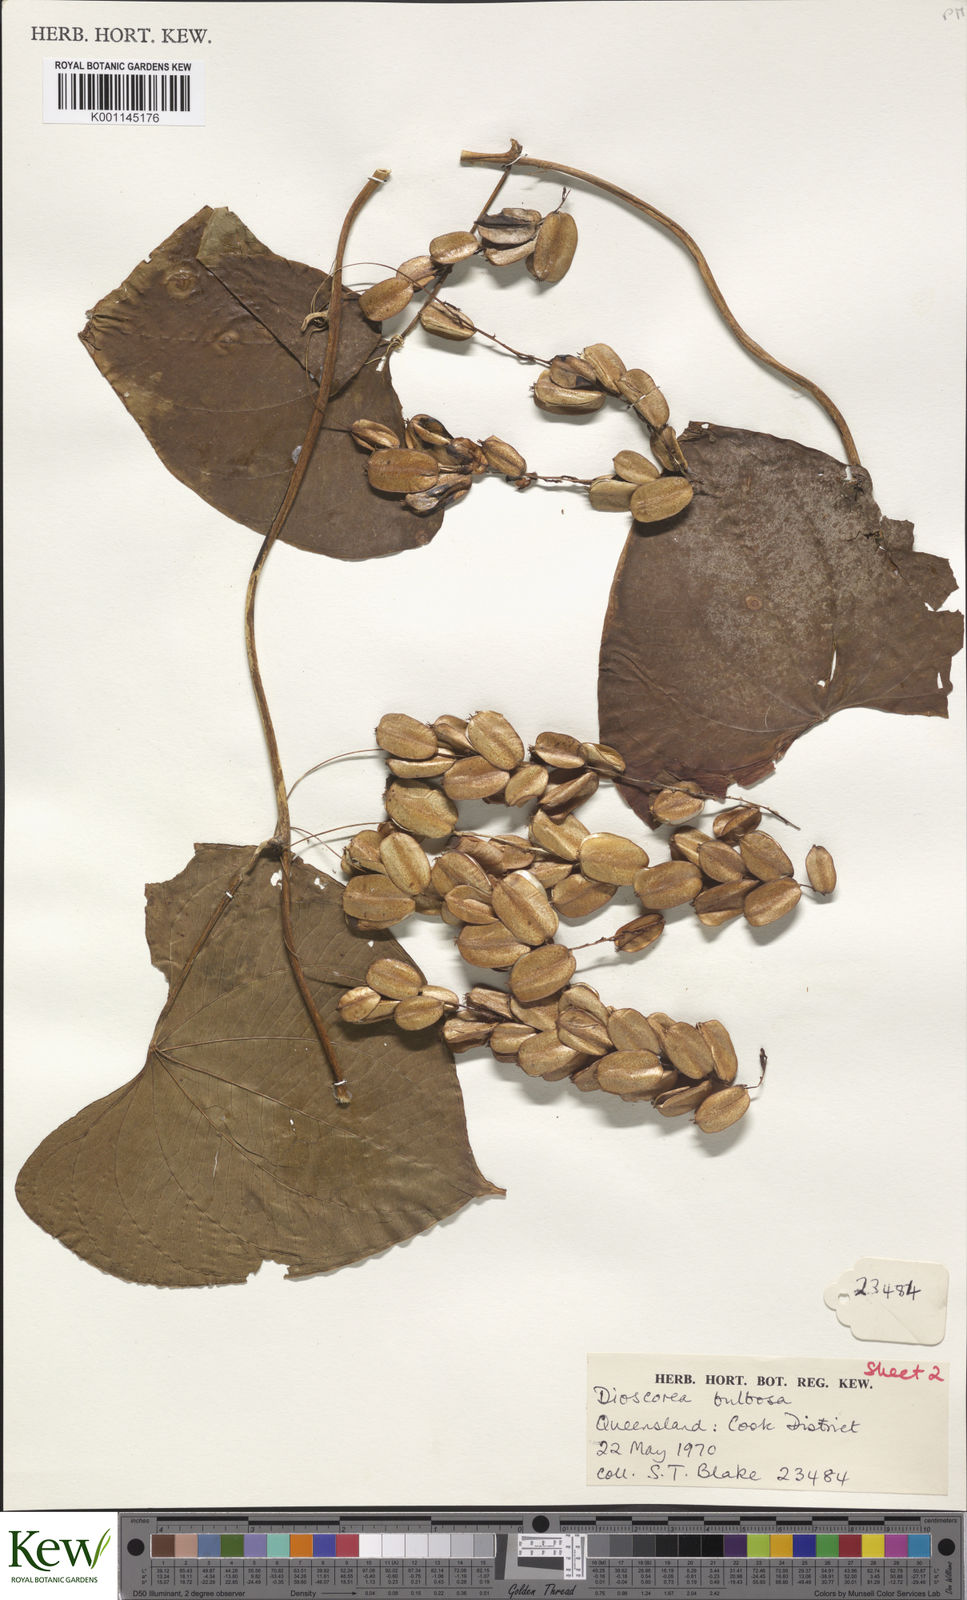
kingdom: Plantae
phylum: Tracheophyta
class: Liliopsida
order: Dioscoreales
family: Dioscoreaceae
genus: Dioscorea
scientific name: Dioscorea
